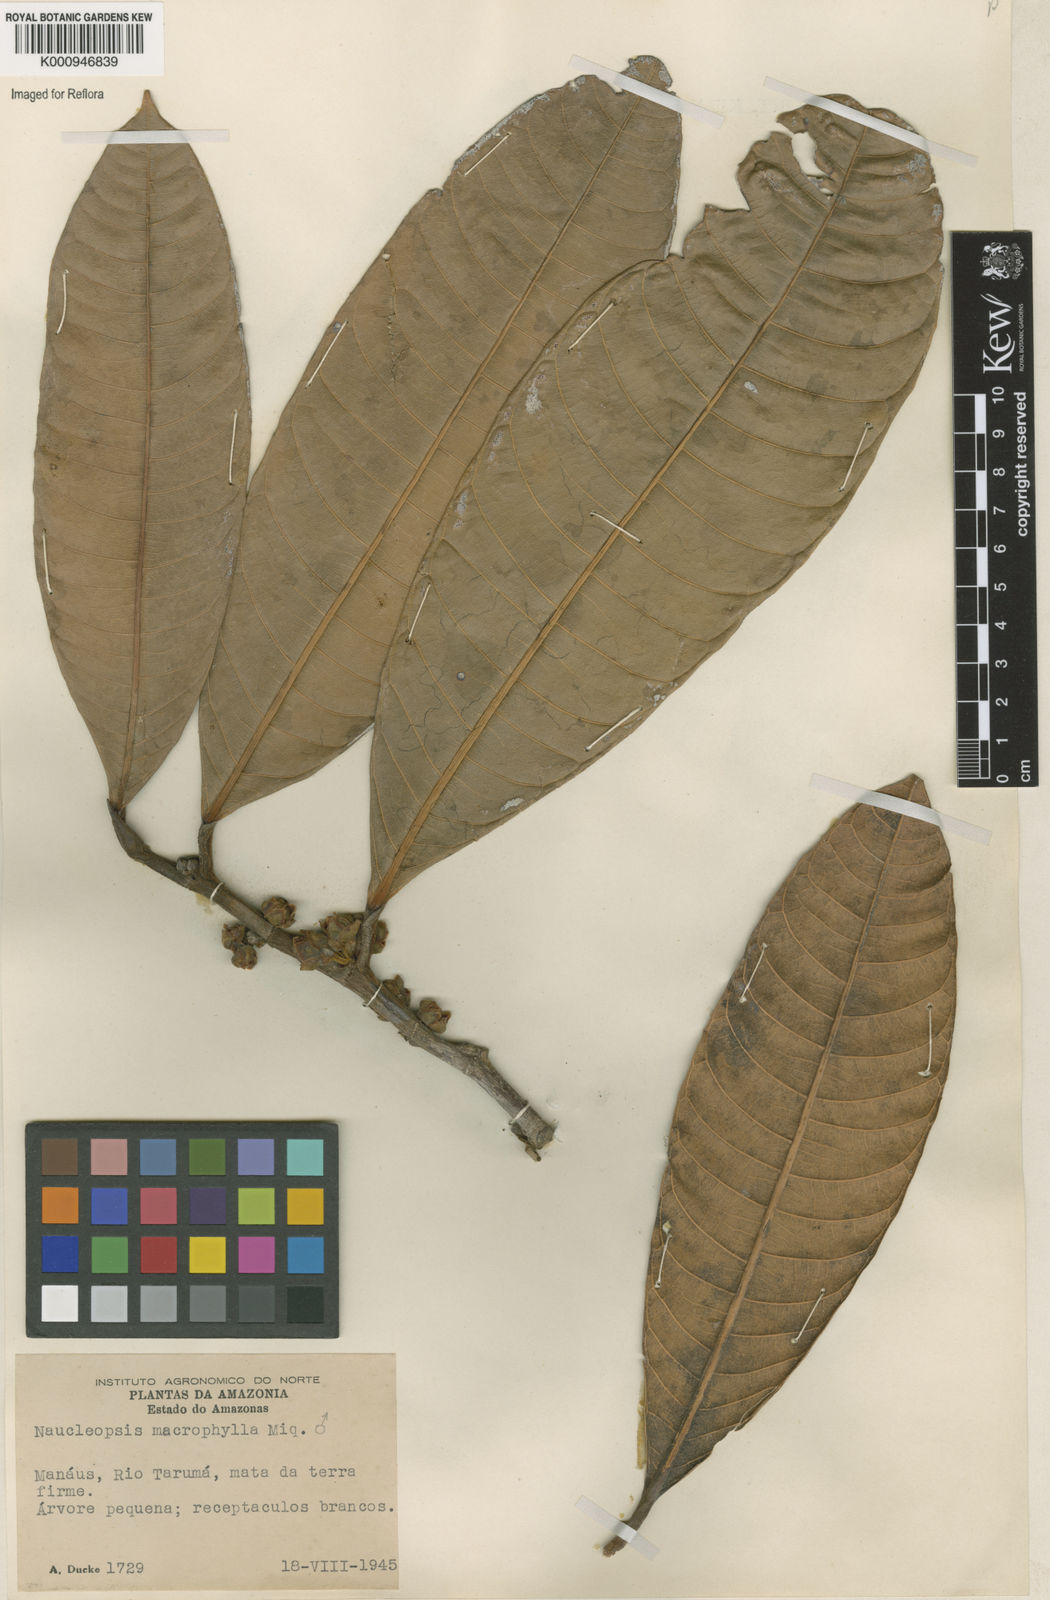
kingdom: Plantae
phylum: Tracheophyta
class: Magnoliopsida
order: Rosales
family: Moraceae
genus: Naucleopsis
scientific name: Naucleopsis macrophylla
